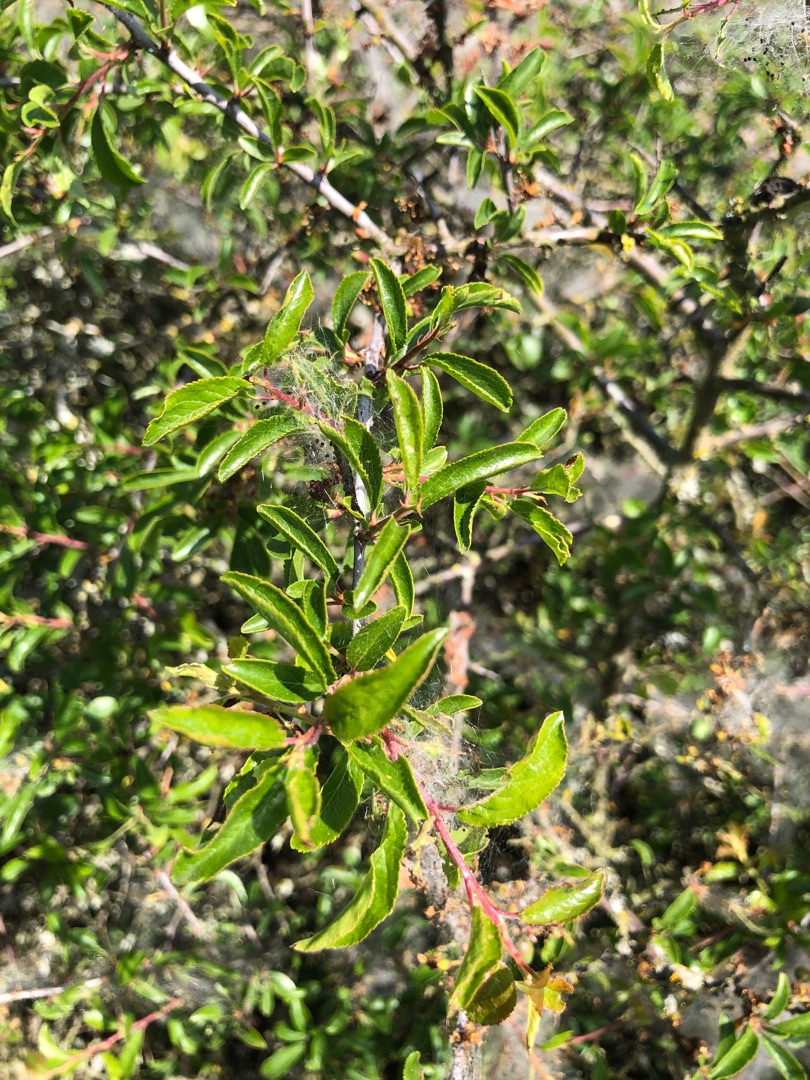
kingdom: Plantae
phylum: Tracheophyta
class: Magnoliopsida
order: Rosales
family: Rosaceae
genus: Prunus
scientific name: Prunus spinosa
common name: Slåen
